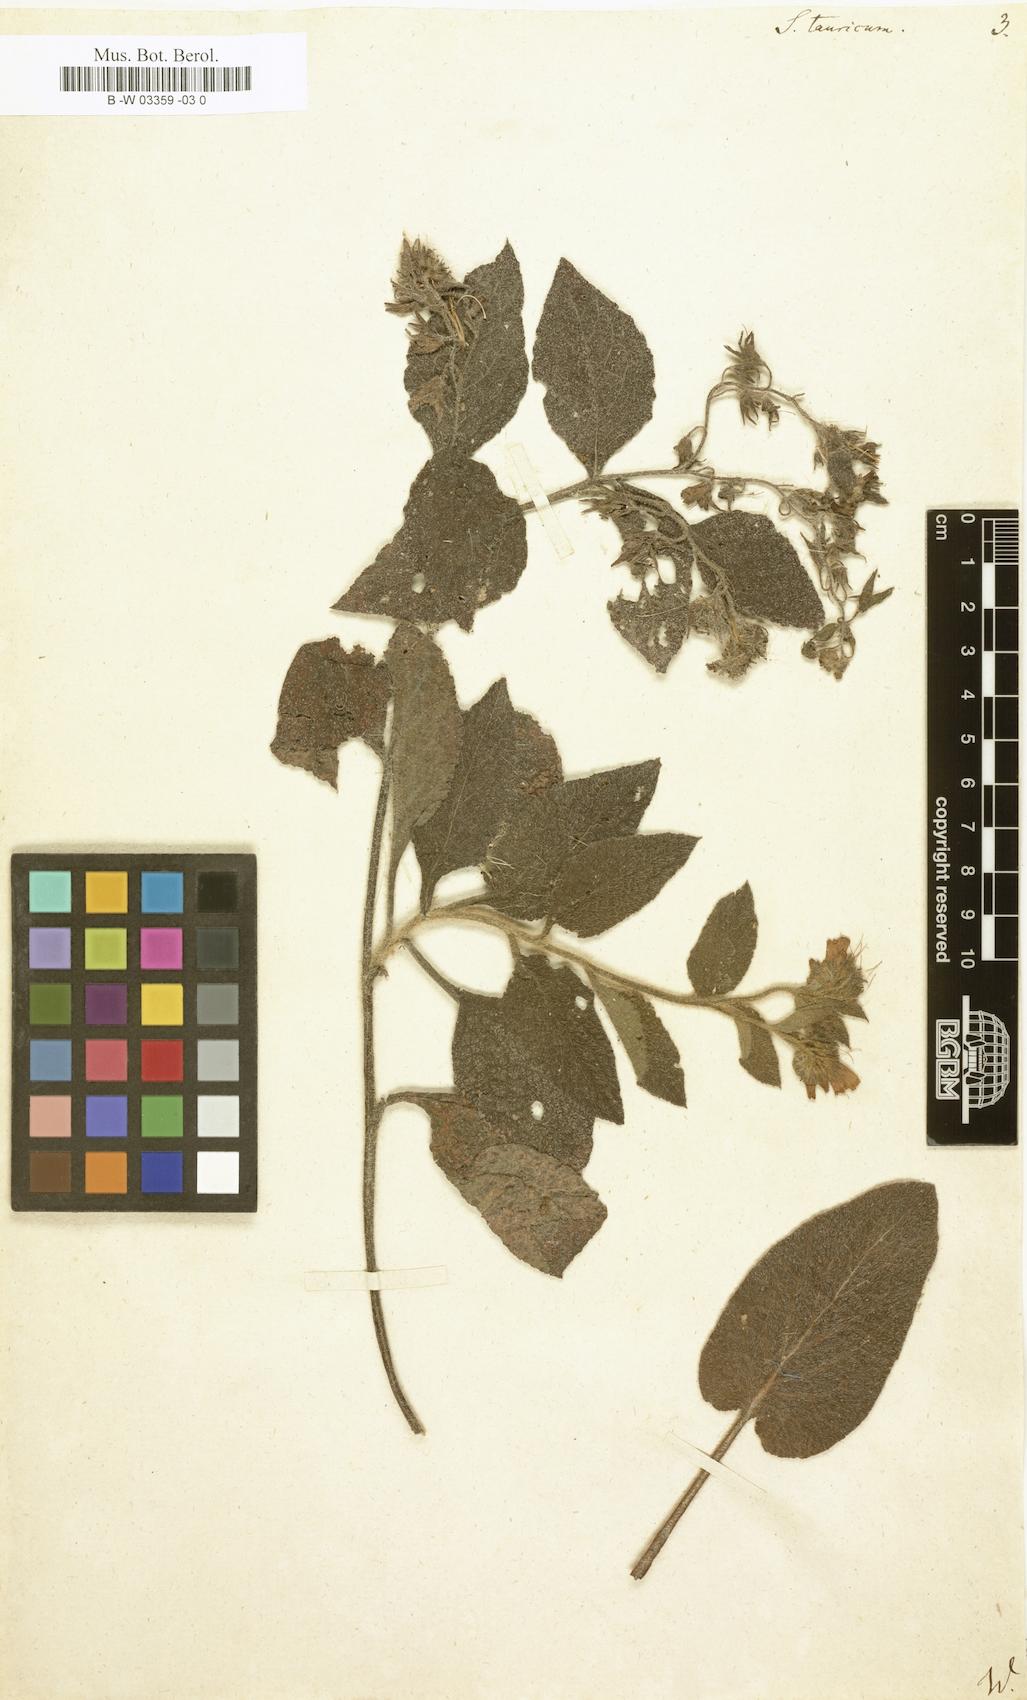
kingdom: Plantae
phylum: Tracheophyta
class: Magnoliopsida
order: Boraginales
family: Boraginaceae
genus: Symphytum
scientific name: Symphytum tauricum
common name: Crimean comfrey
